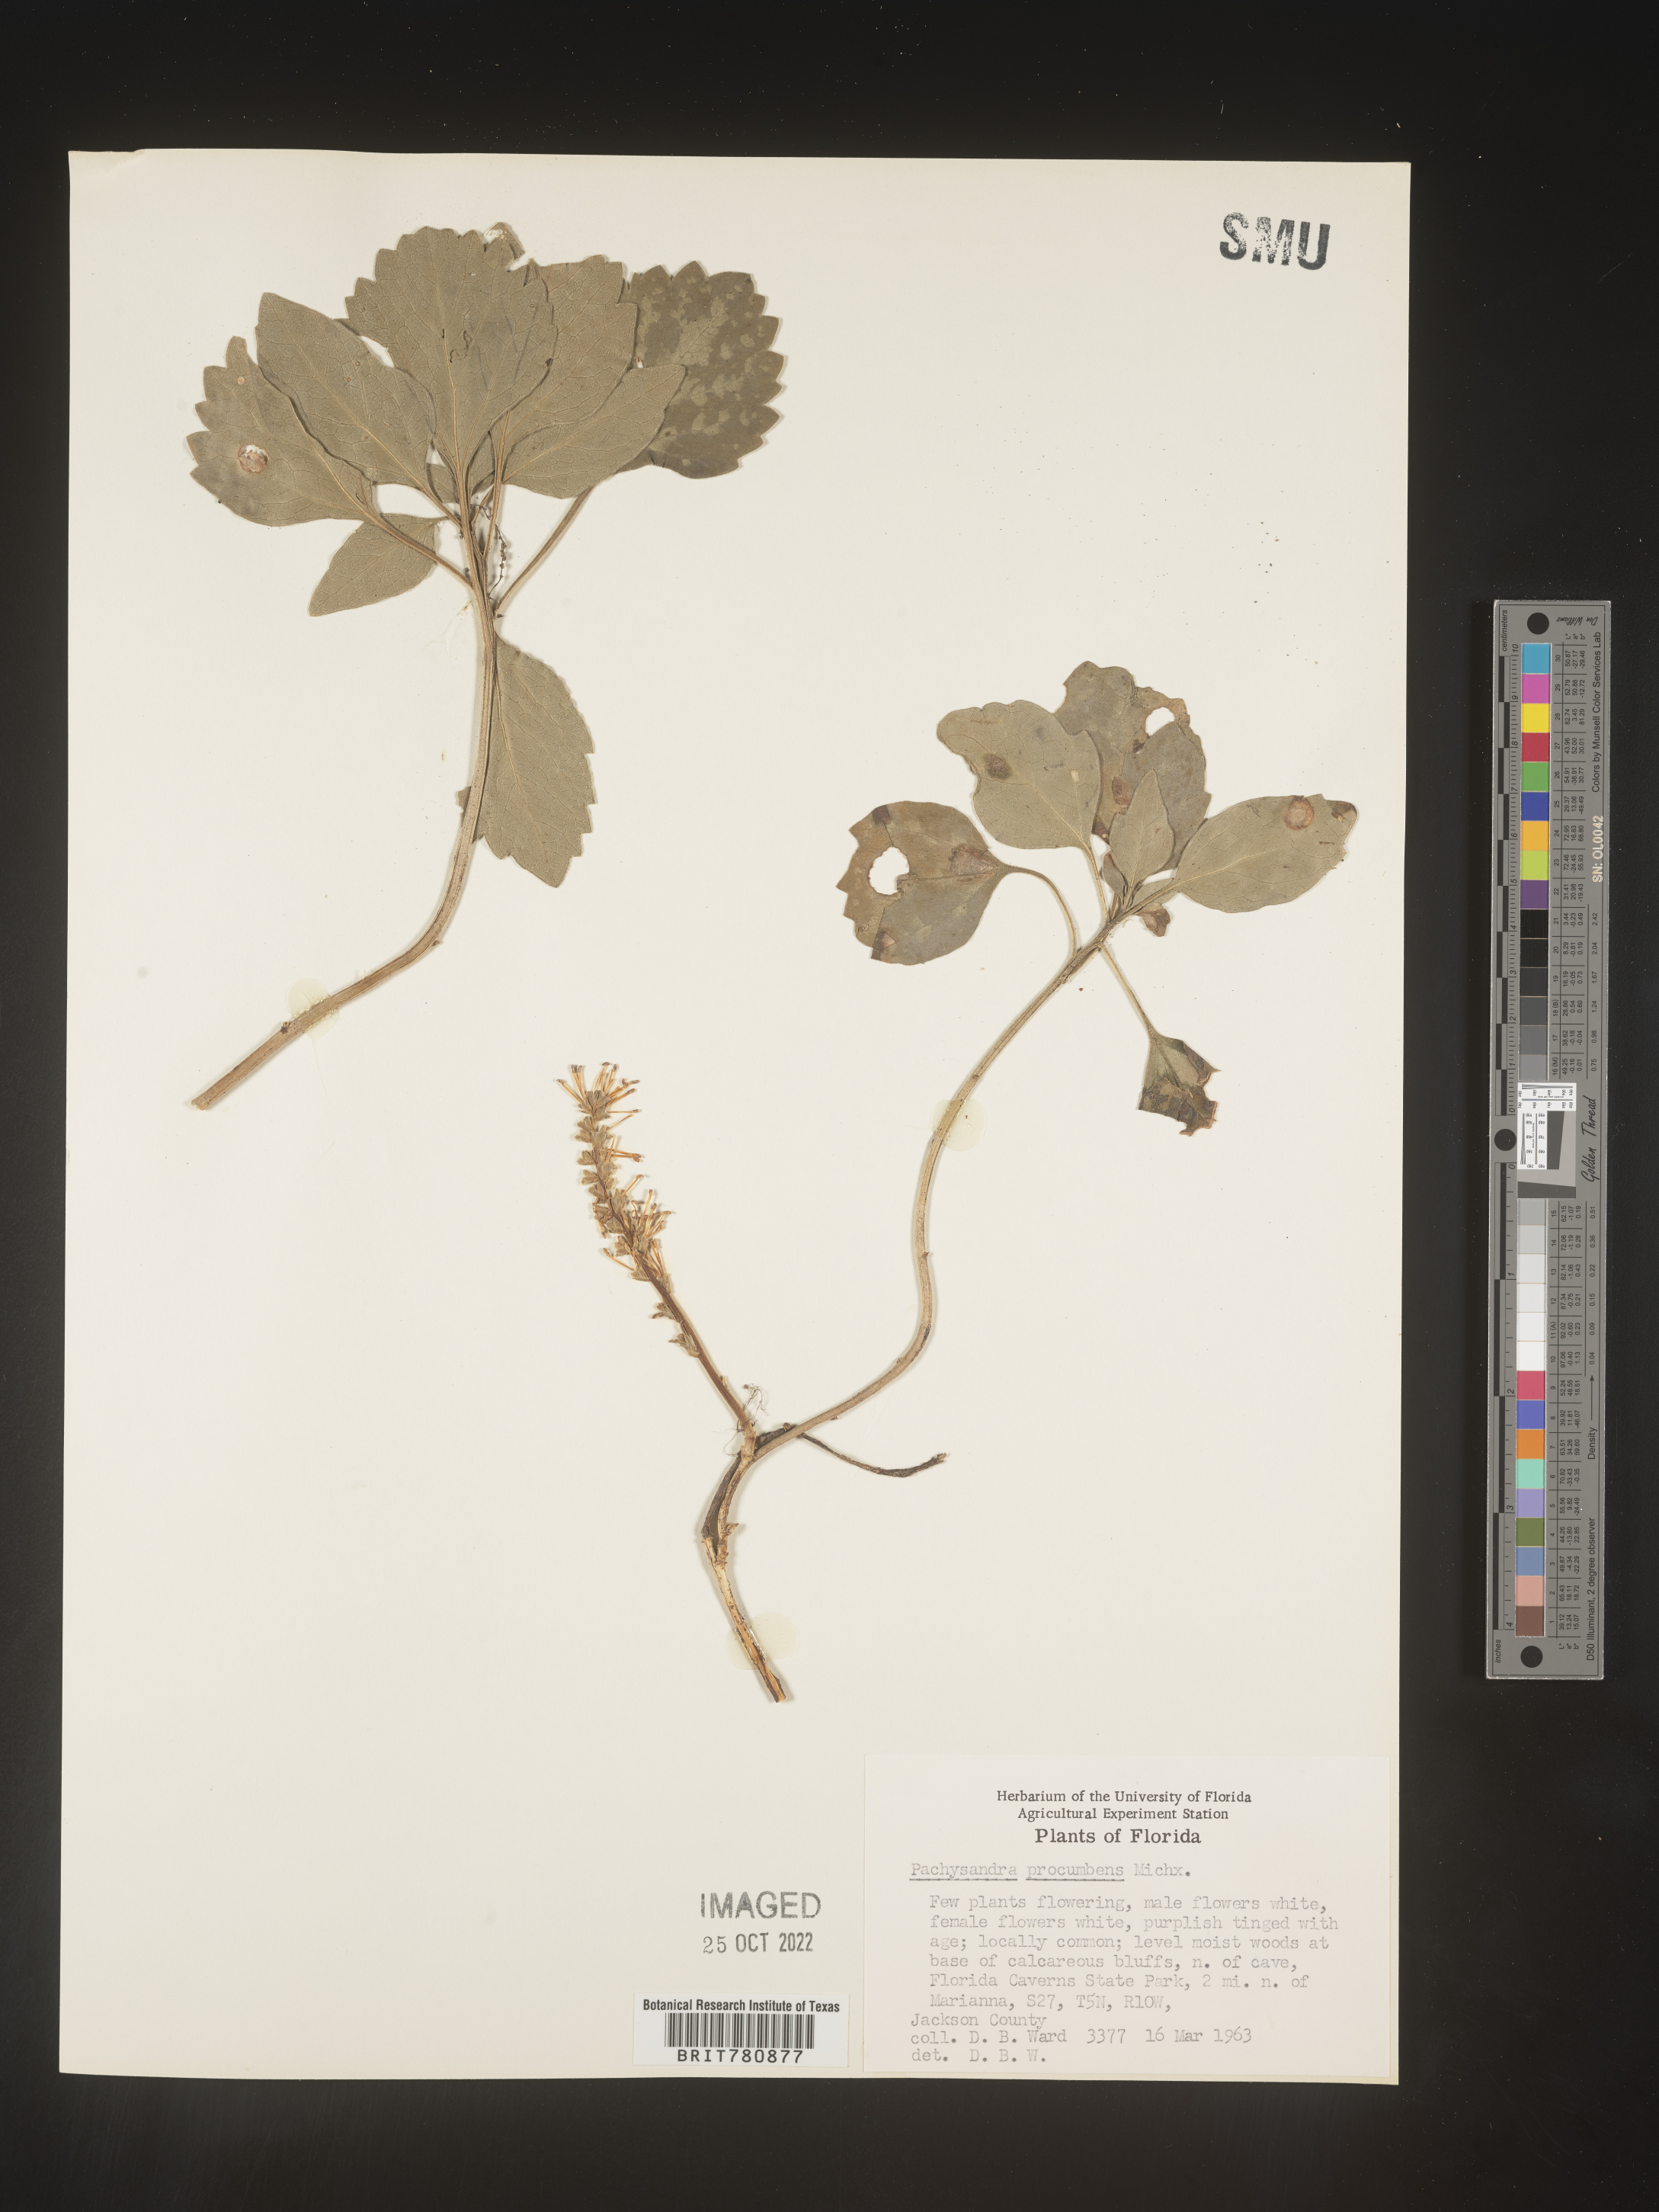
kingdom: Plantae
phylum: Tracheophyta
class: Magnoliopsida
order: Buxales
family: Buxaceae
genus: Pachysandra
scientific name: Pachysandra
